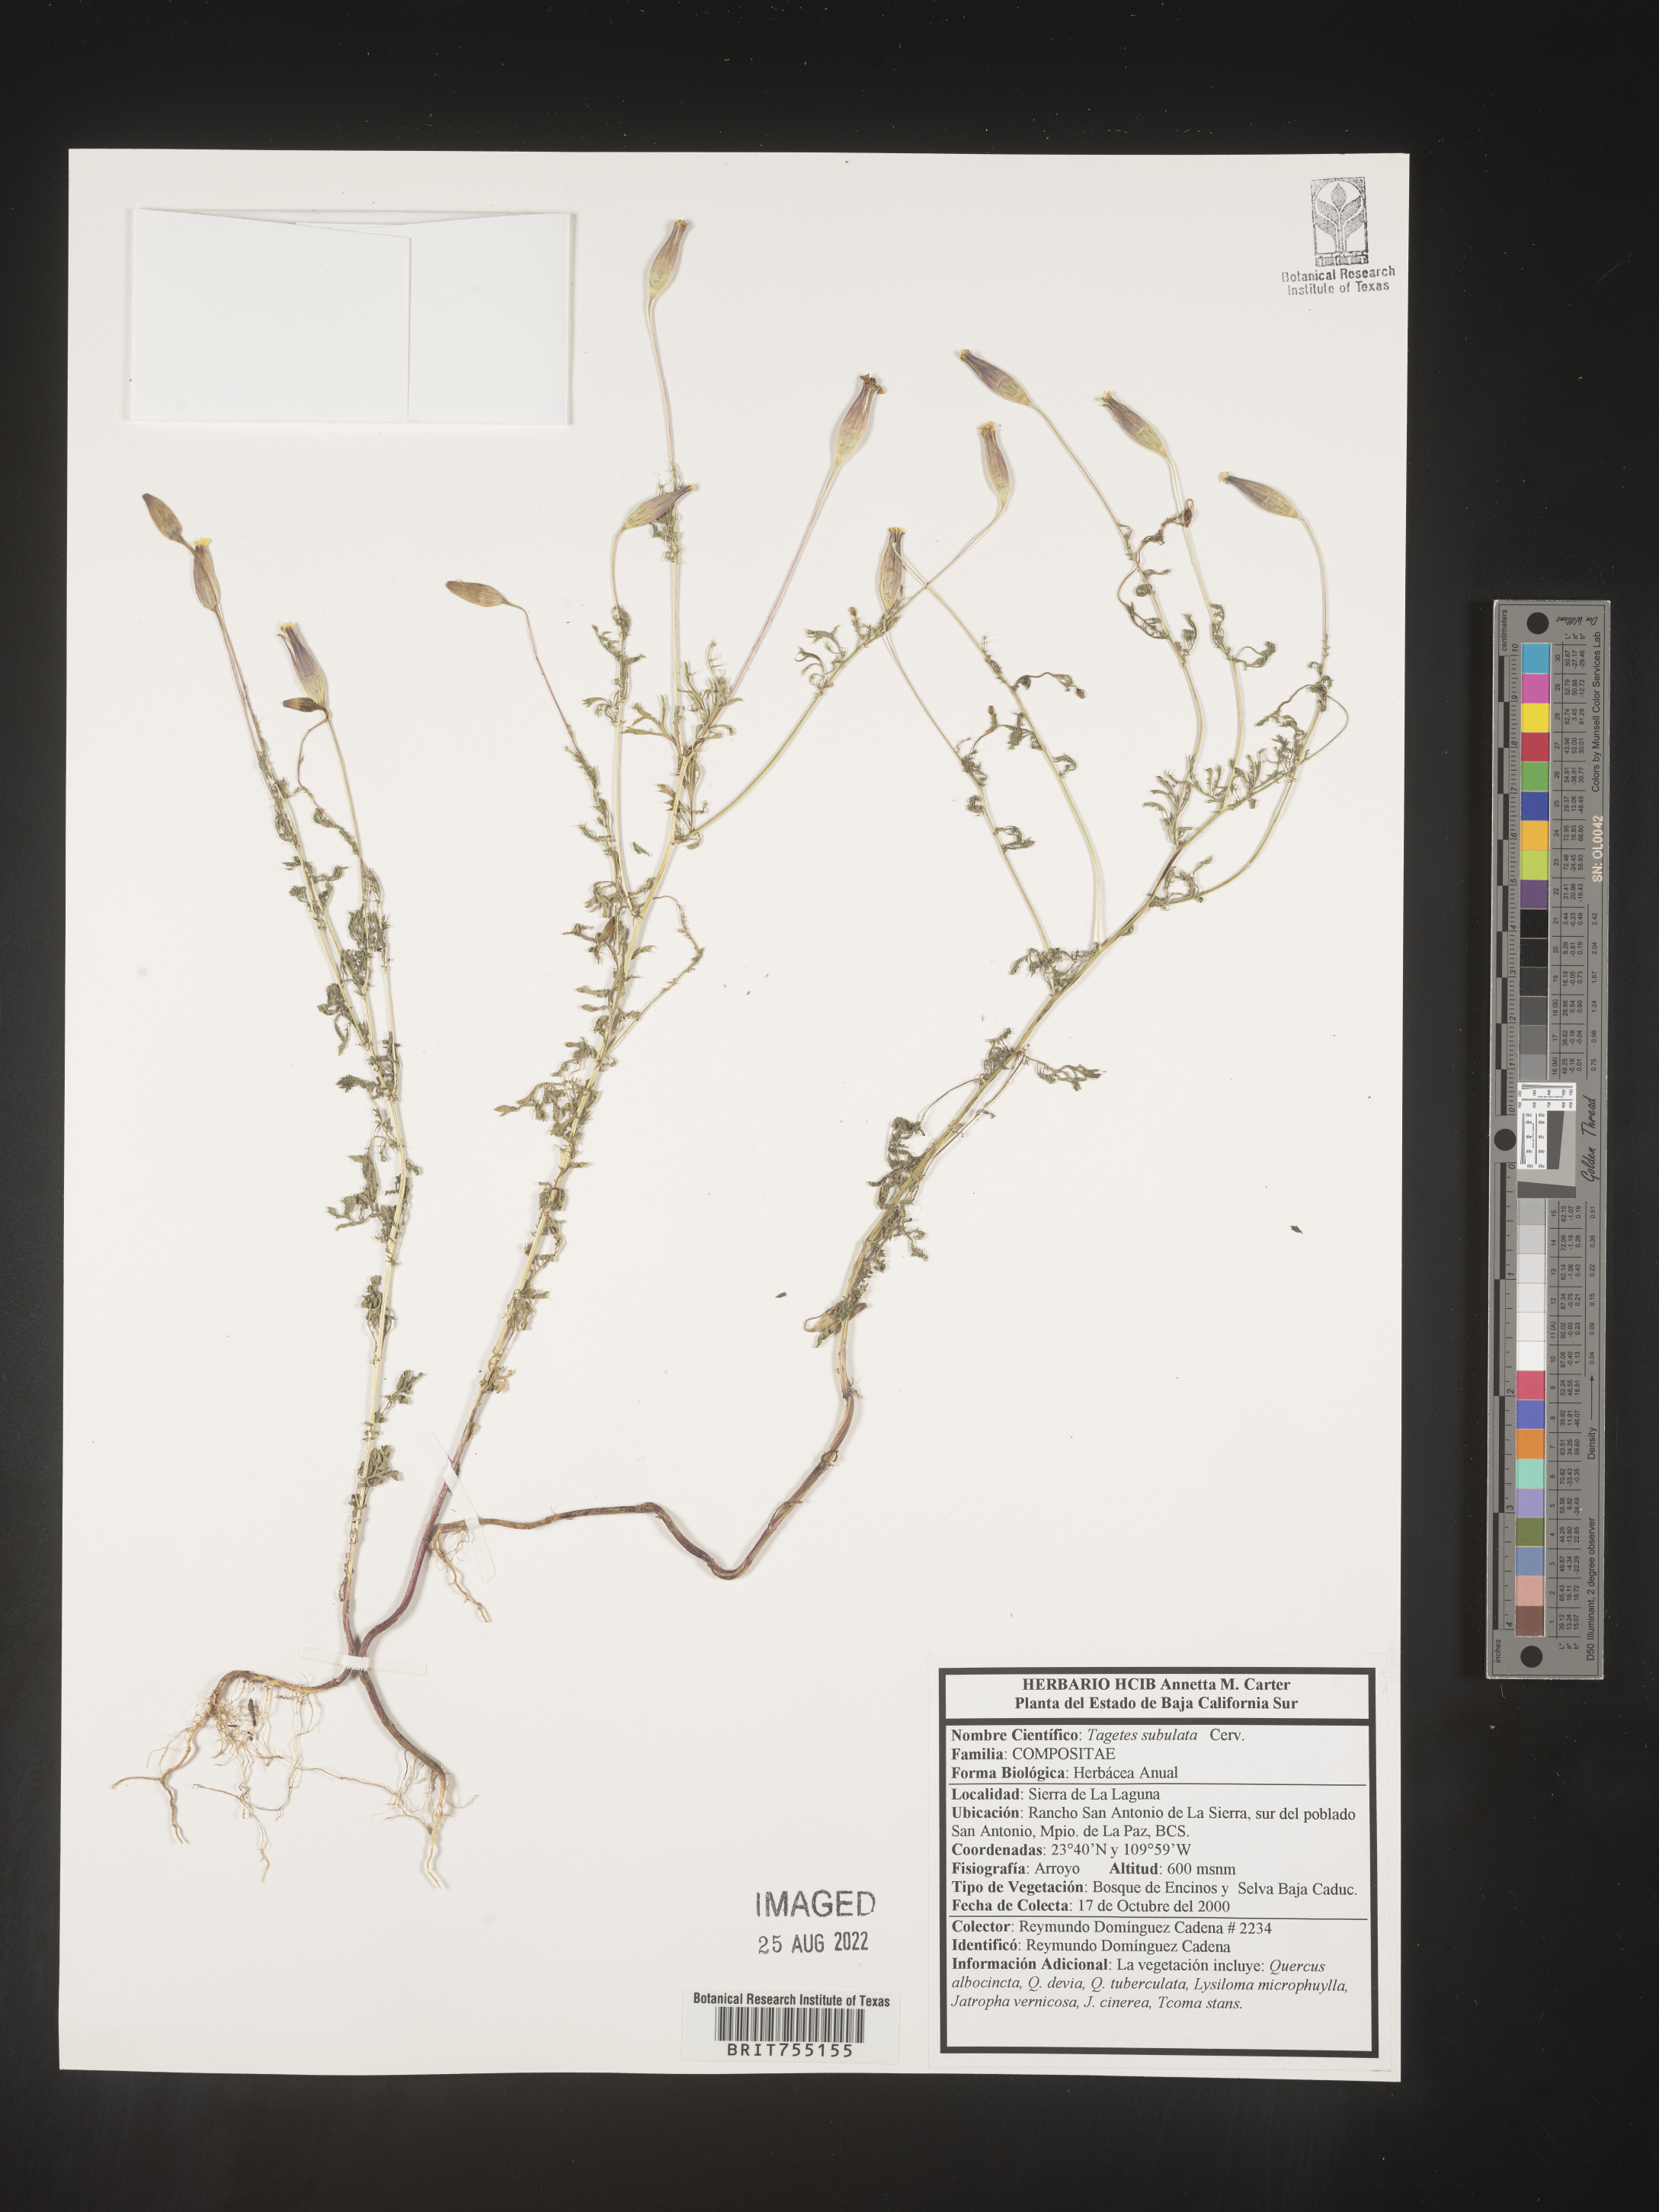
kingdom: Plantae
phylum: Tracheophyta
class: Magnoliopsida
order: Asterales
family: Asteraceae
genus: Tagetes
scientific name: Tagetes
